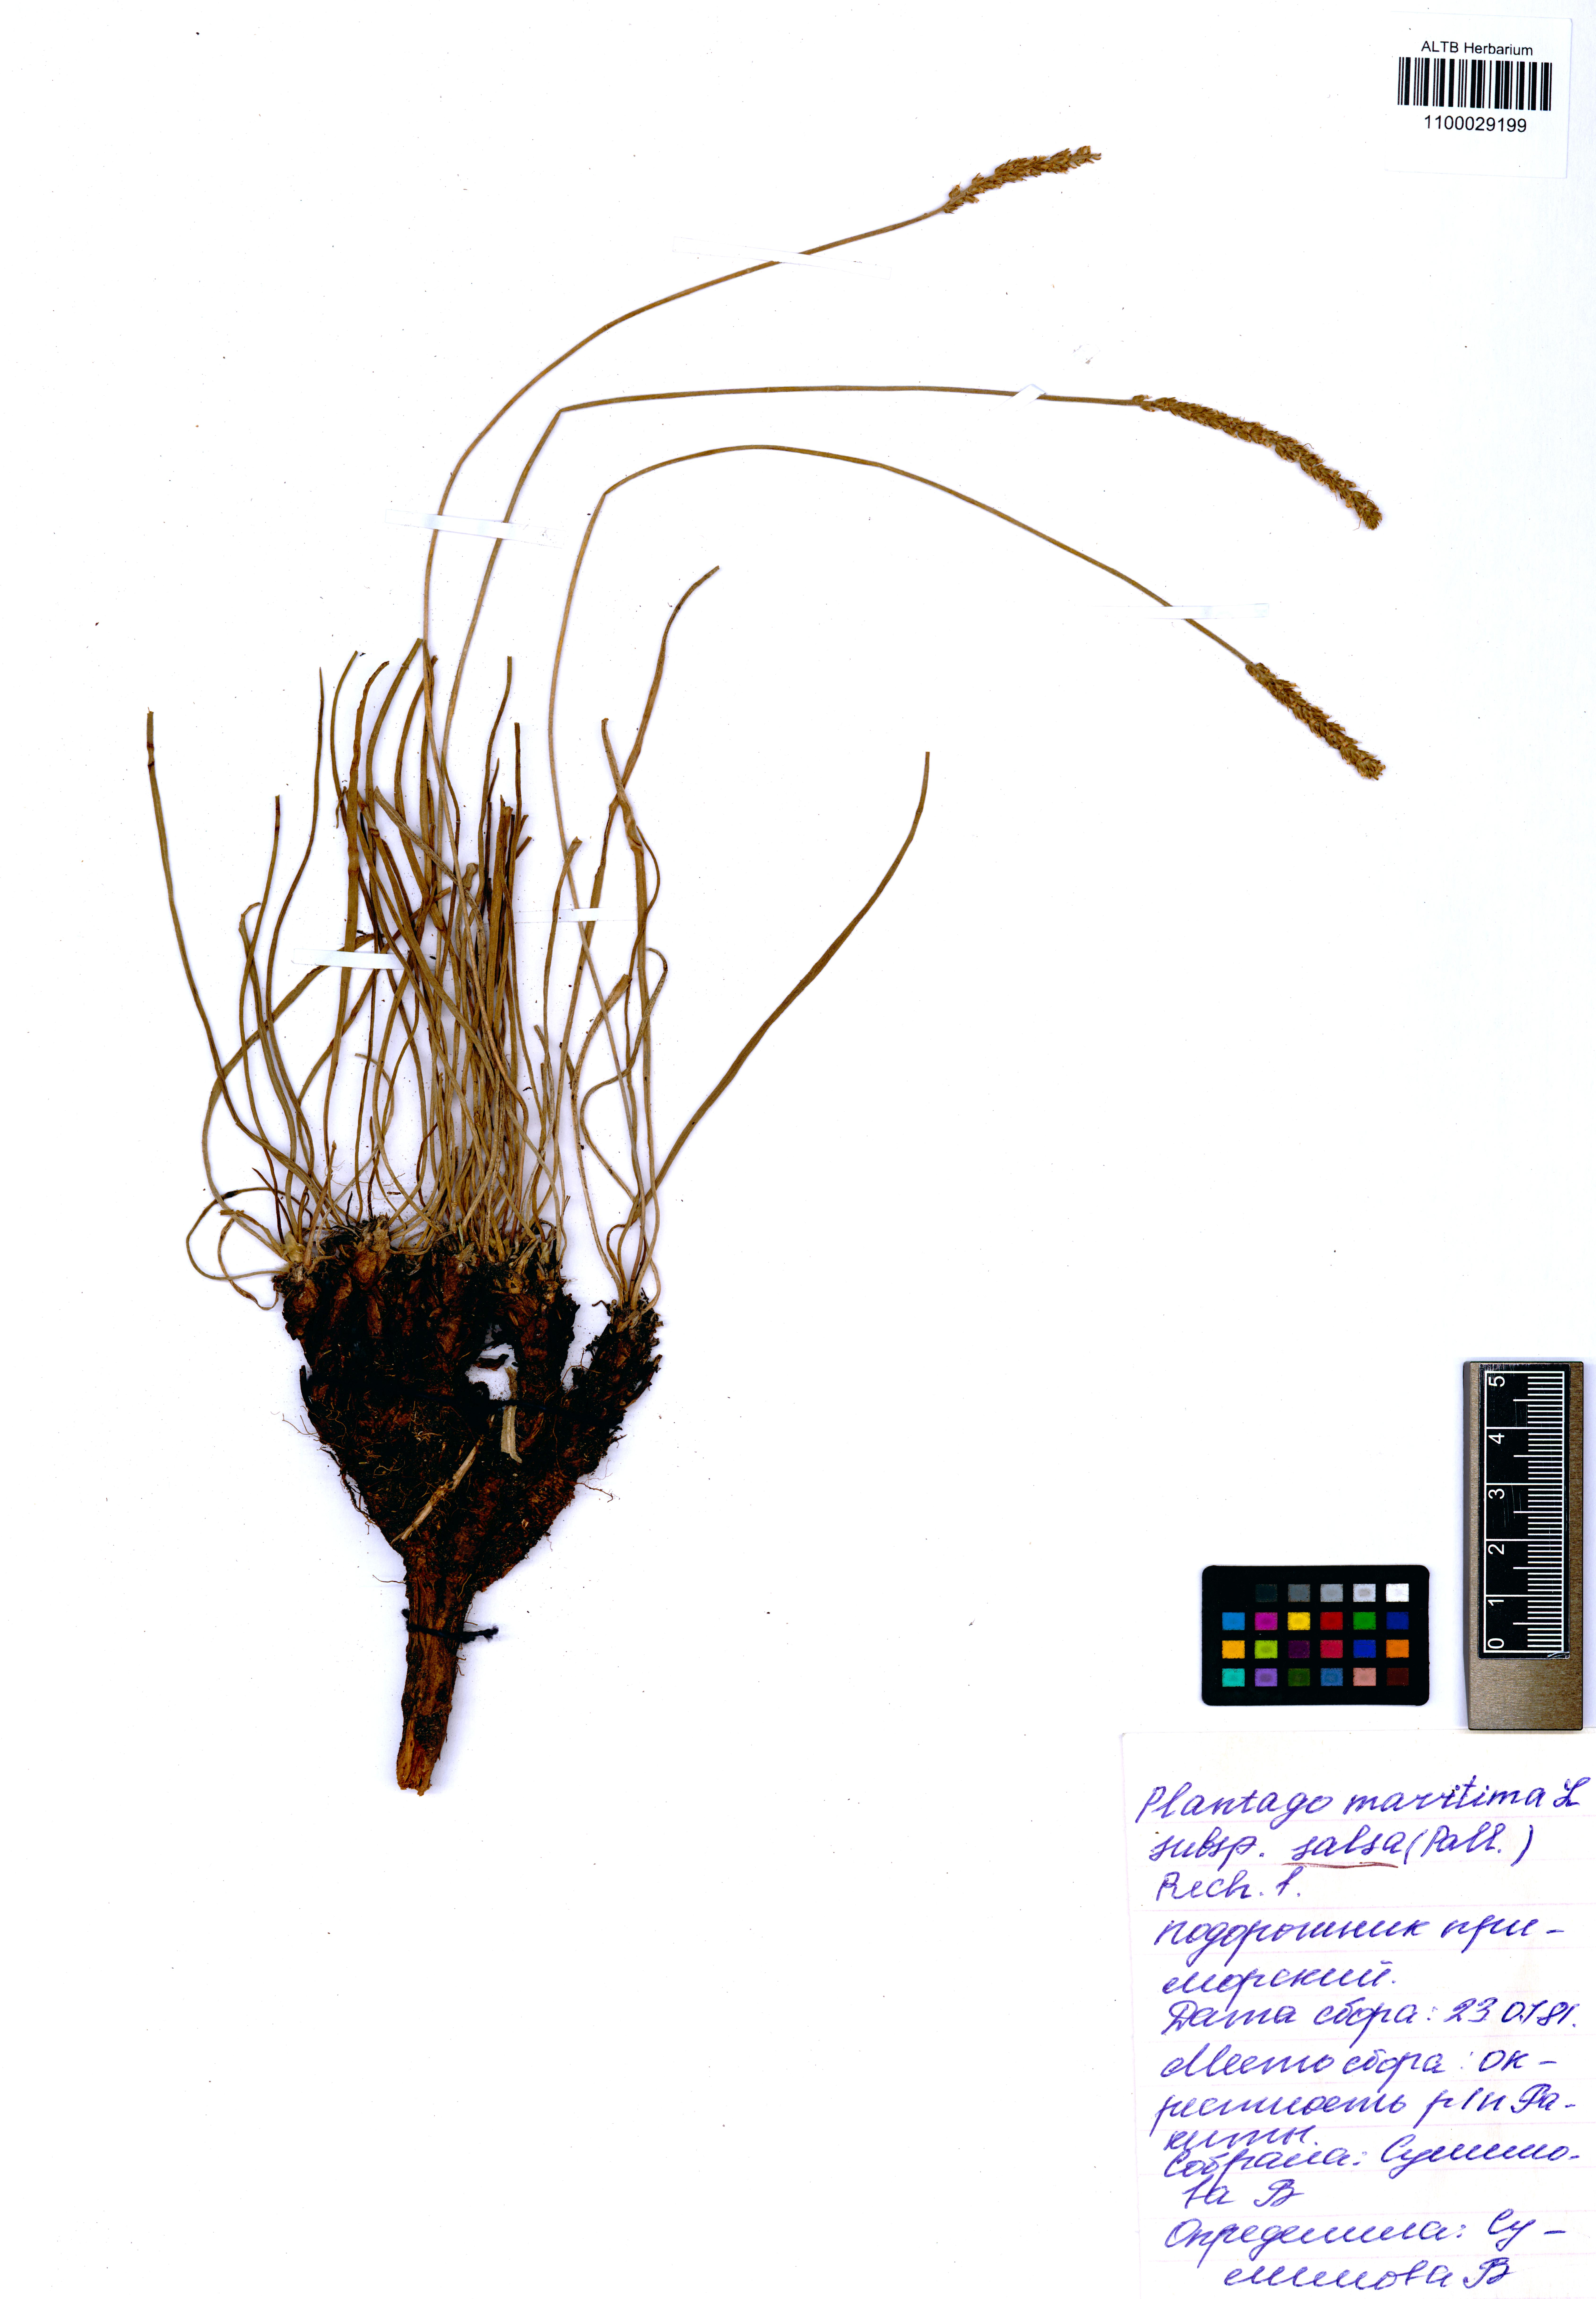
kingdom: Plantae
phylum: Tracheophyta
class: Magnoliopsida
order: Lamiales
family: Plantaginaceae
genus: Plantago
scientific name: Plantago salsa
